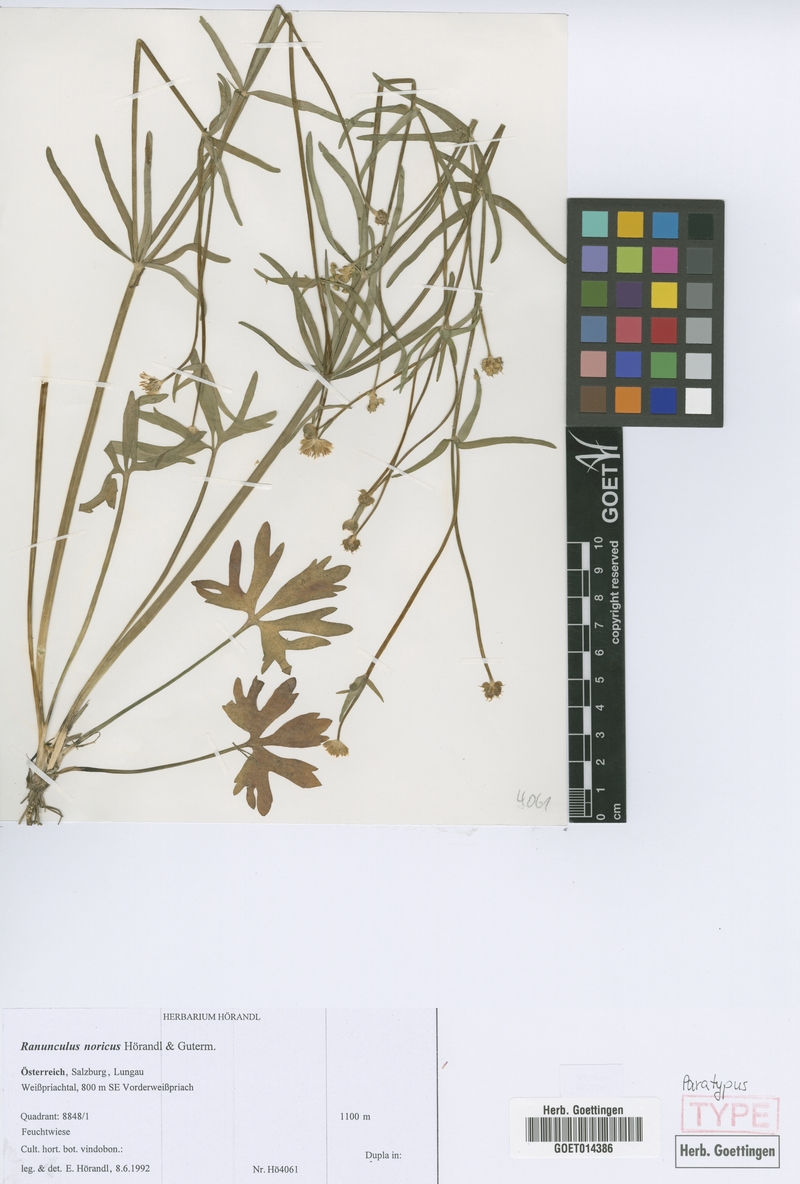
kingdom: Plantae
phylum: Tracheophyta
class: Magnoliopsida
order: Ranunculales
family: Ranunculaceae
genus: Ranunculus
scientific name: Ranunculus noricus
